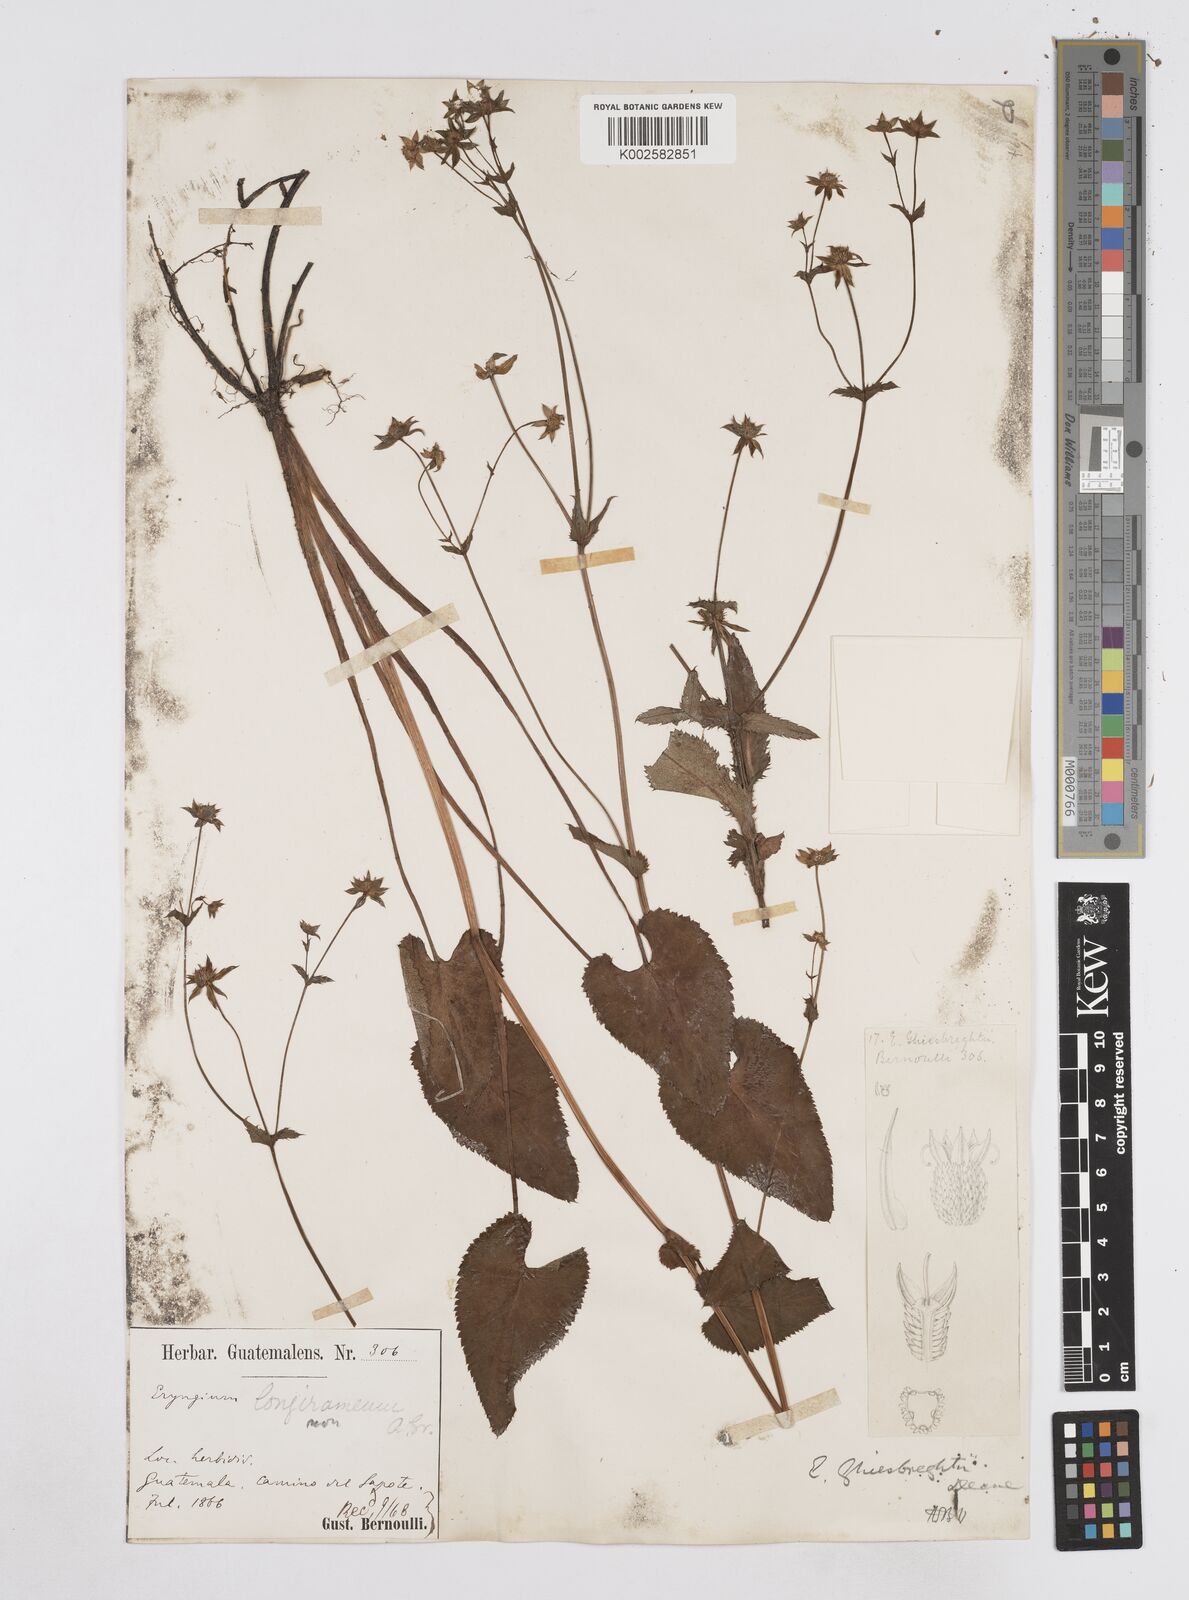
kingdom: Plantae
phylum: Tracheophyta
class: Magnoliopsida
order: Apiales
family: Apiaceae
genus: Eryngium
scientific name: Eryngium ghiesbreghtii
